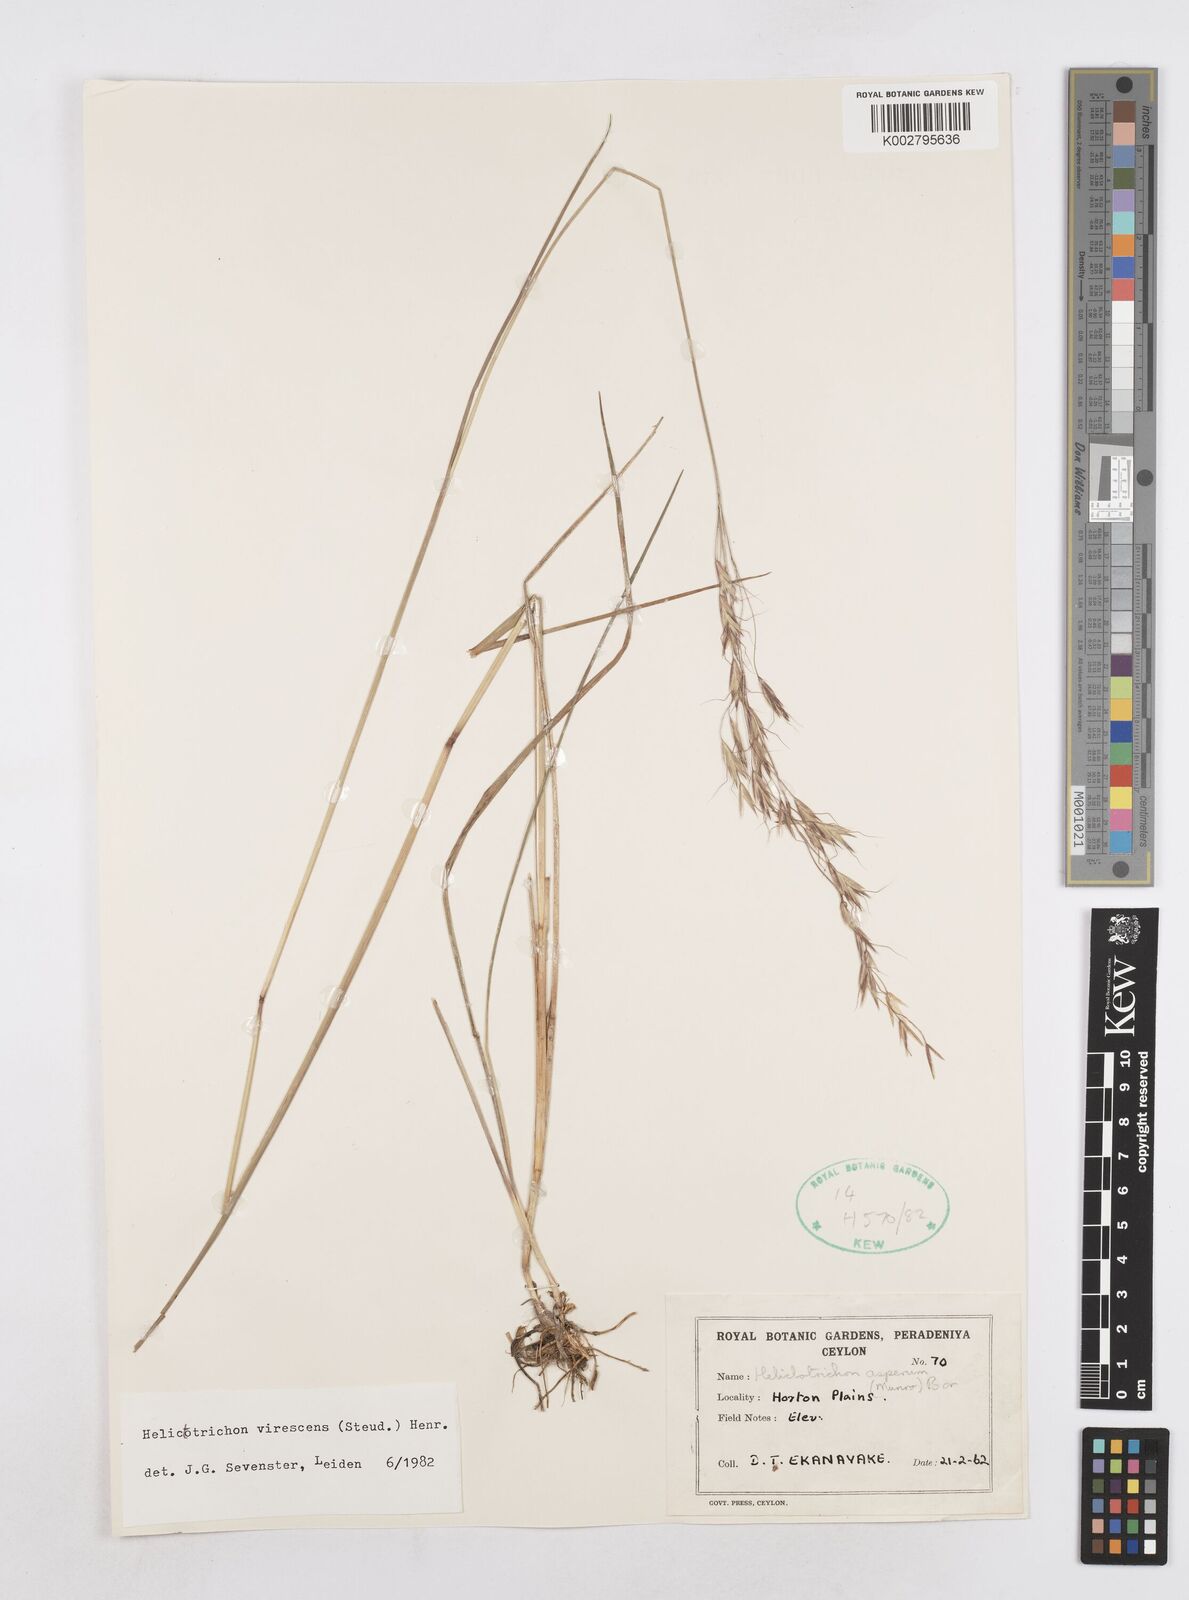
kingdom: Plantae
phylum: Tracheophyta
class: Liliopsida
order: Poales
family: Poaceae
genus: Trisetopsis
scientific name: Trisetopsis virescens
